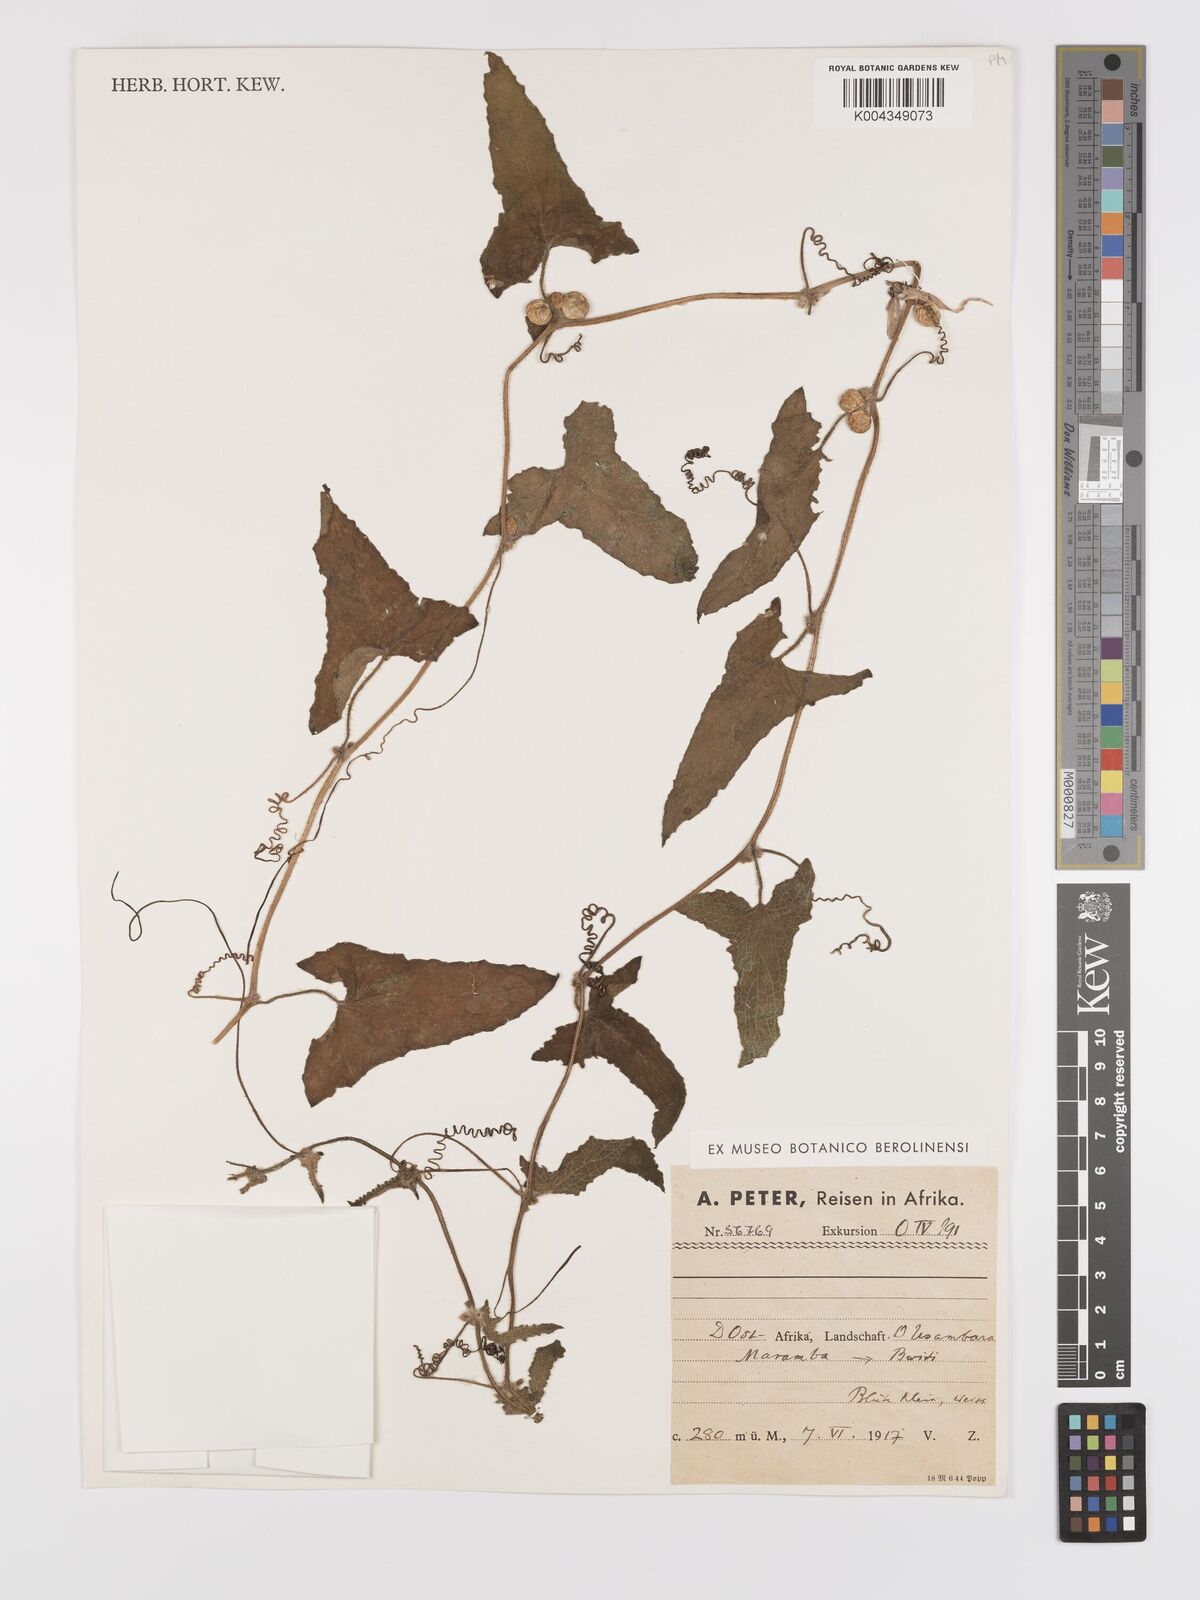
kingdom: Plantae
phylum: Tracheophyta
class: Magnoliopsida
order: Cucurbitales
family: Cucurbitaceae
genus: Cucumis
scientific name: Cucumis maderaspatanus
